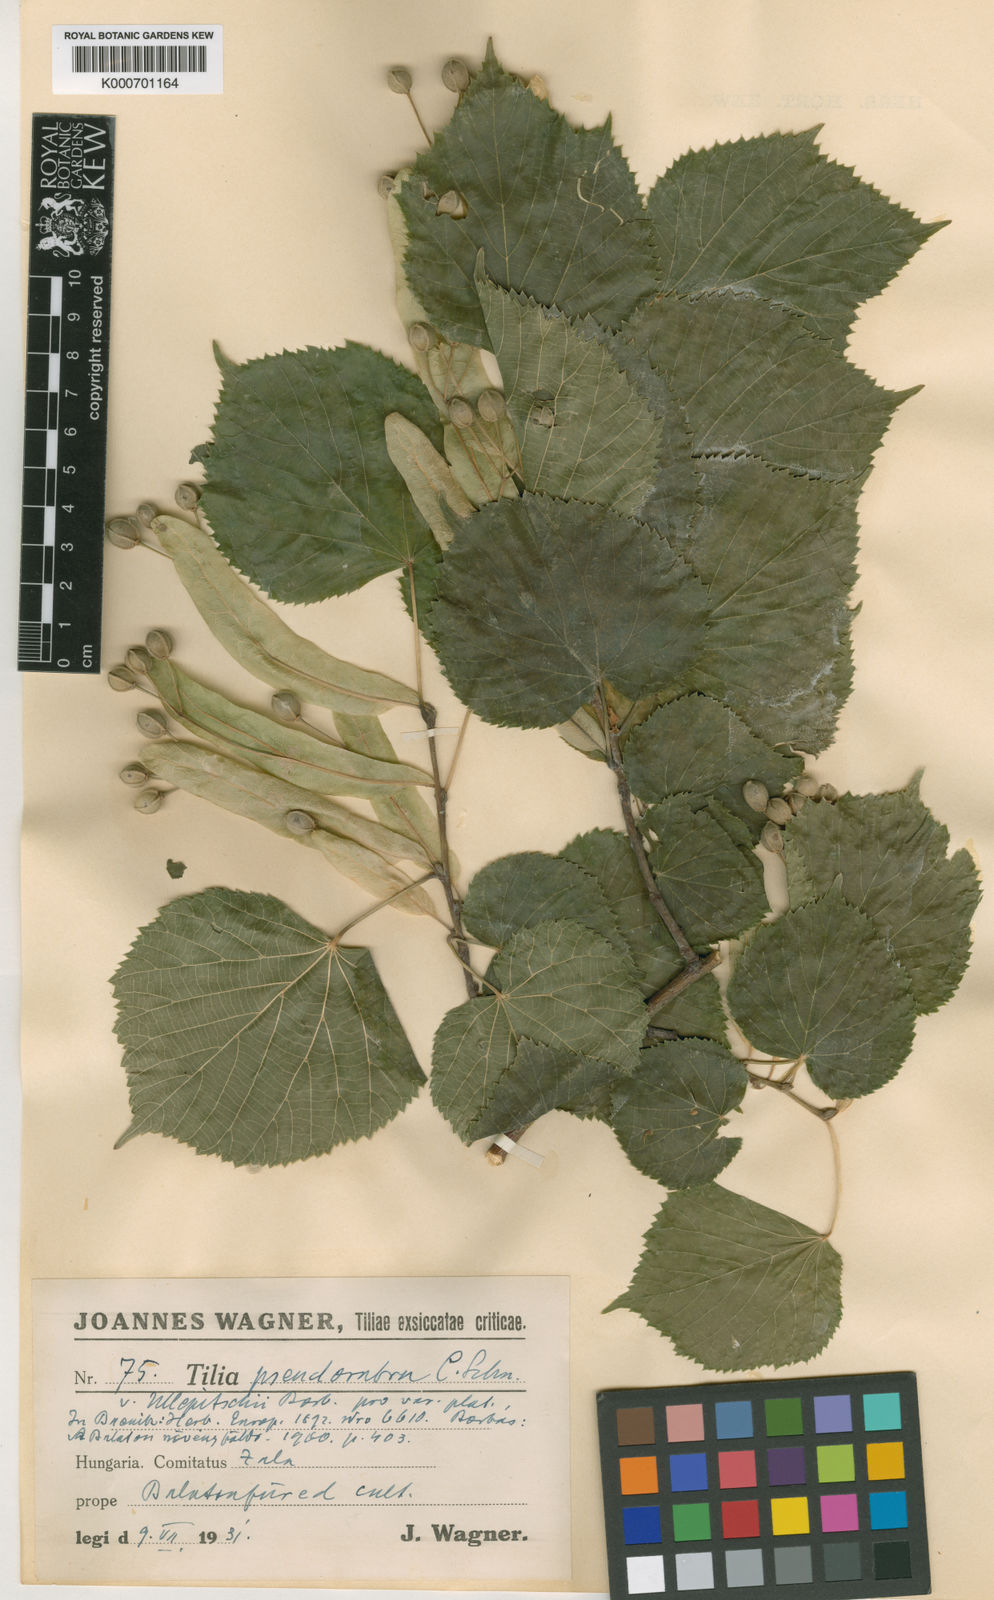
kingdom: Plantae
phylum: Tracheophyta
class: Magnoliopsida
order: Malvales
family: Malvaceae
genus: Tilia
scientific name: Tilia
